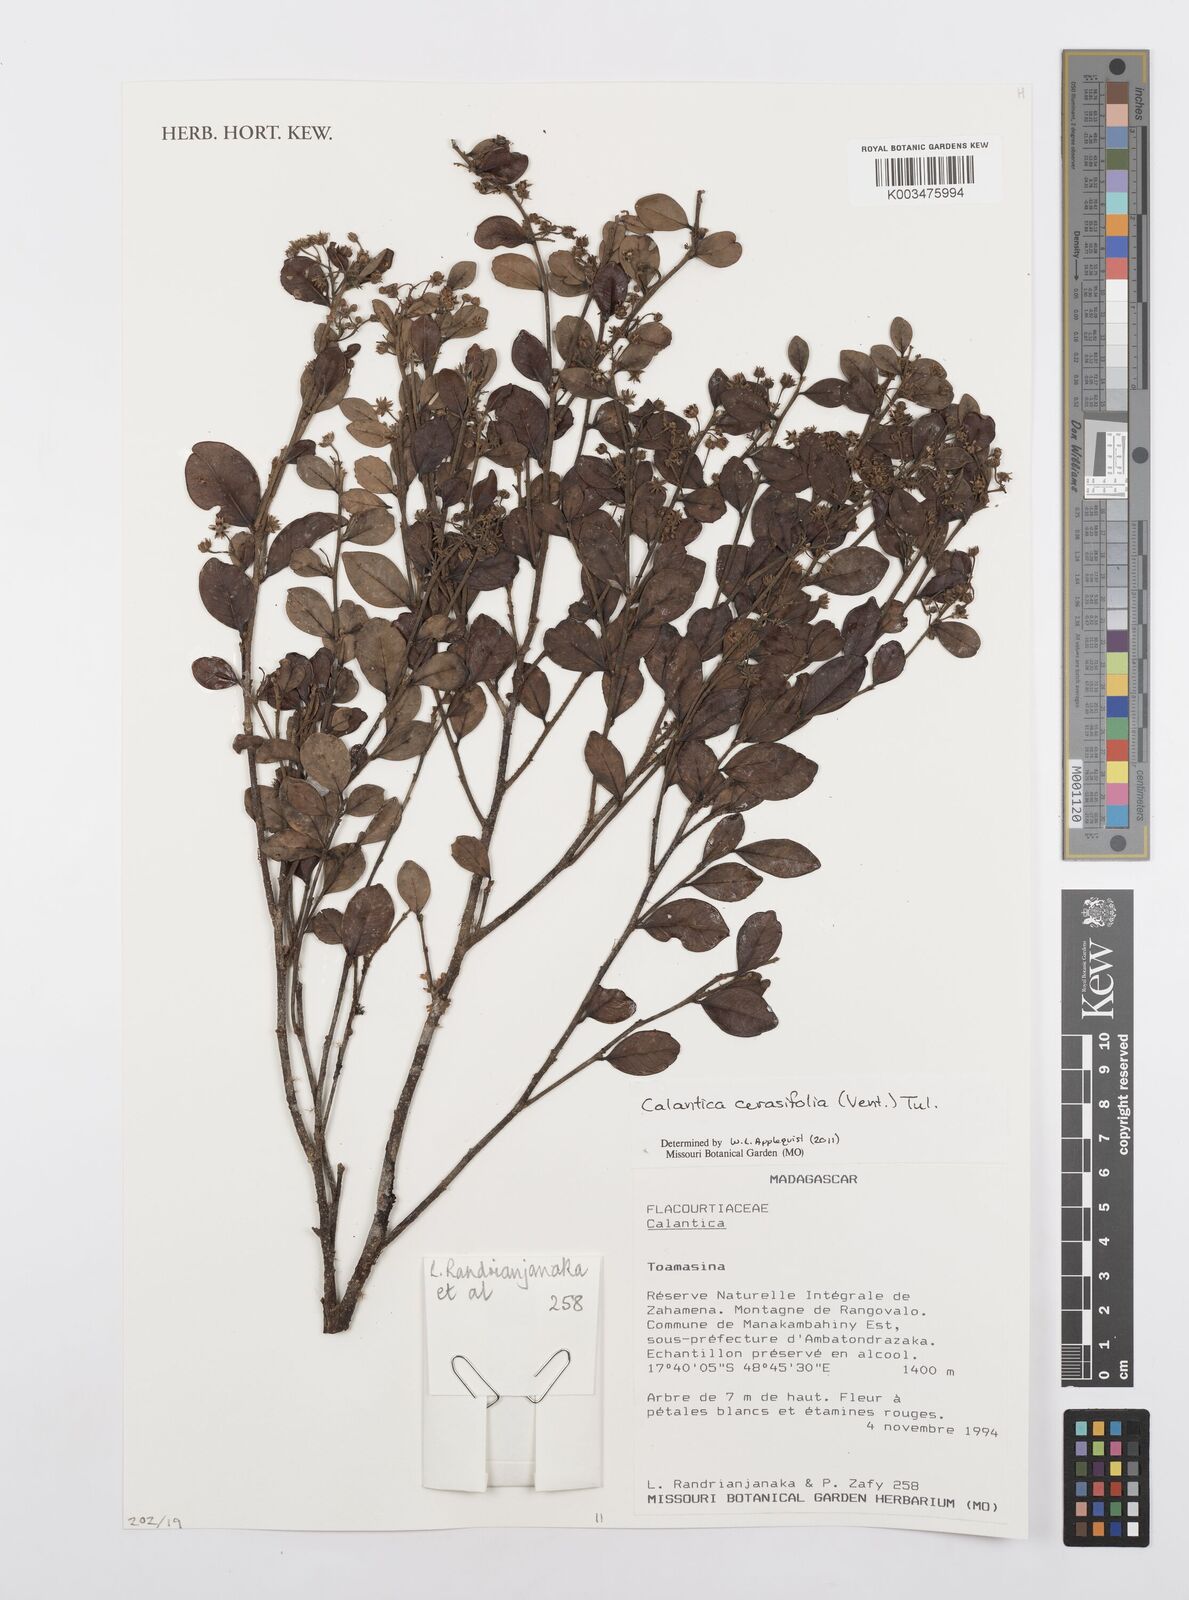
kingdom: Plantae
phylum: Tracheophyta
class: Magnoliopsida
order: Malpighiales
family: Salicaceae
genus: Calantica
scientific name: Calantica cerasifolia
